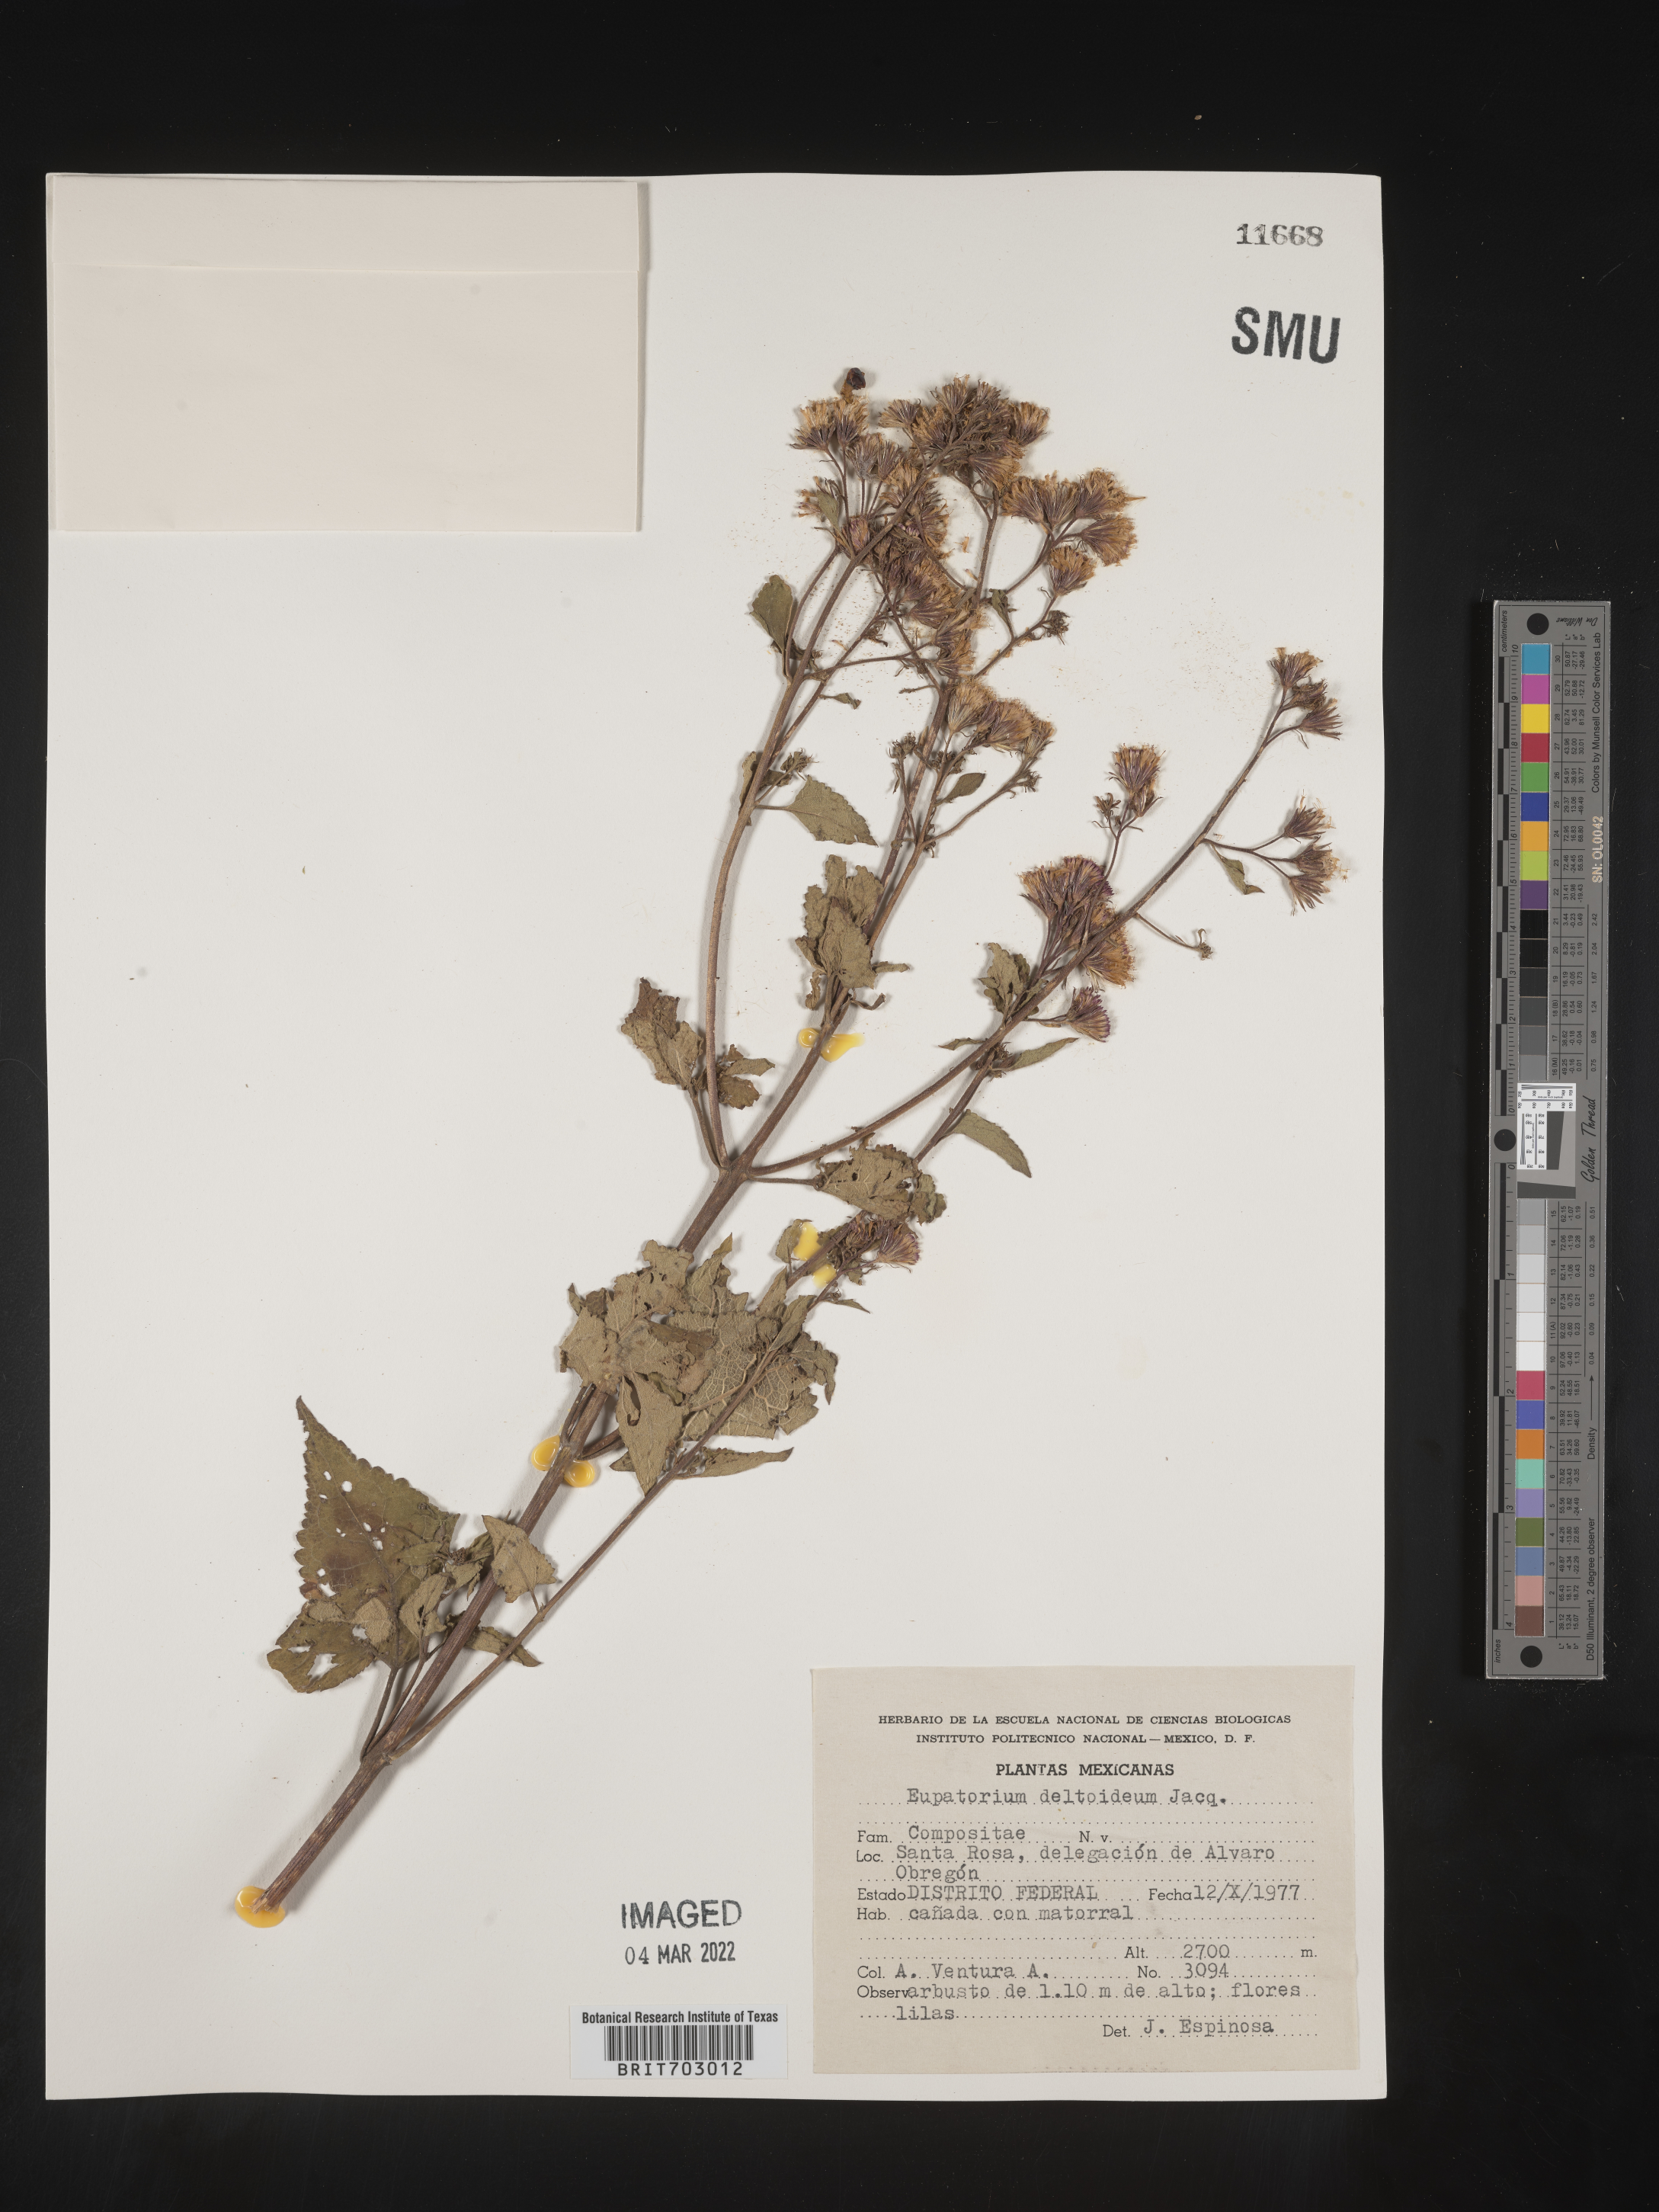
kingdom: Plantae
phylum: Tracheophyta
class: Magnoliopsida
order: Asterales
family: Asteraceae
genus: Eupatorium
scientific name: Eupatorium
